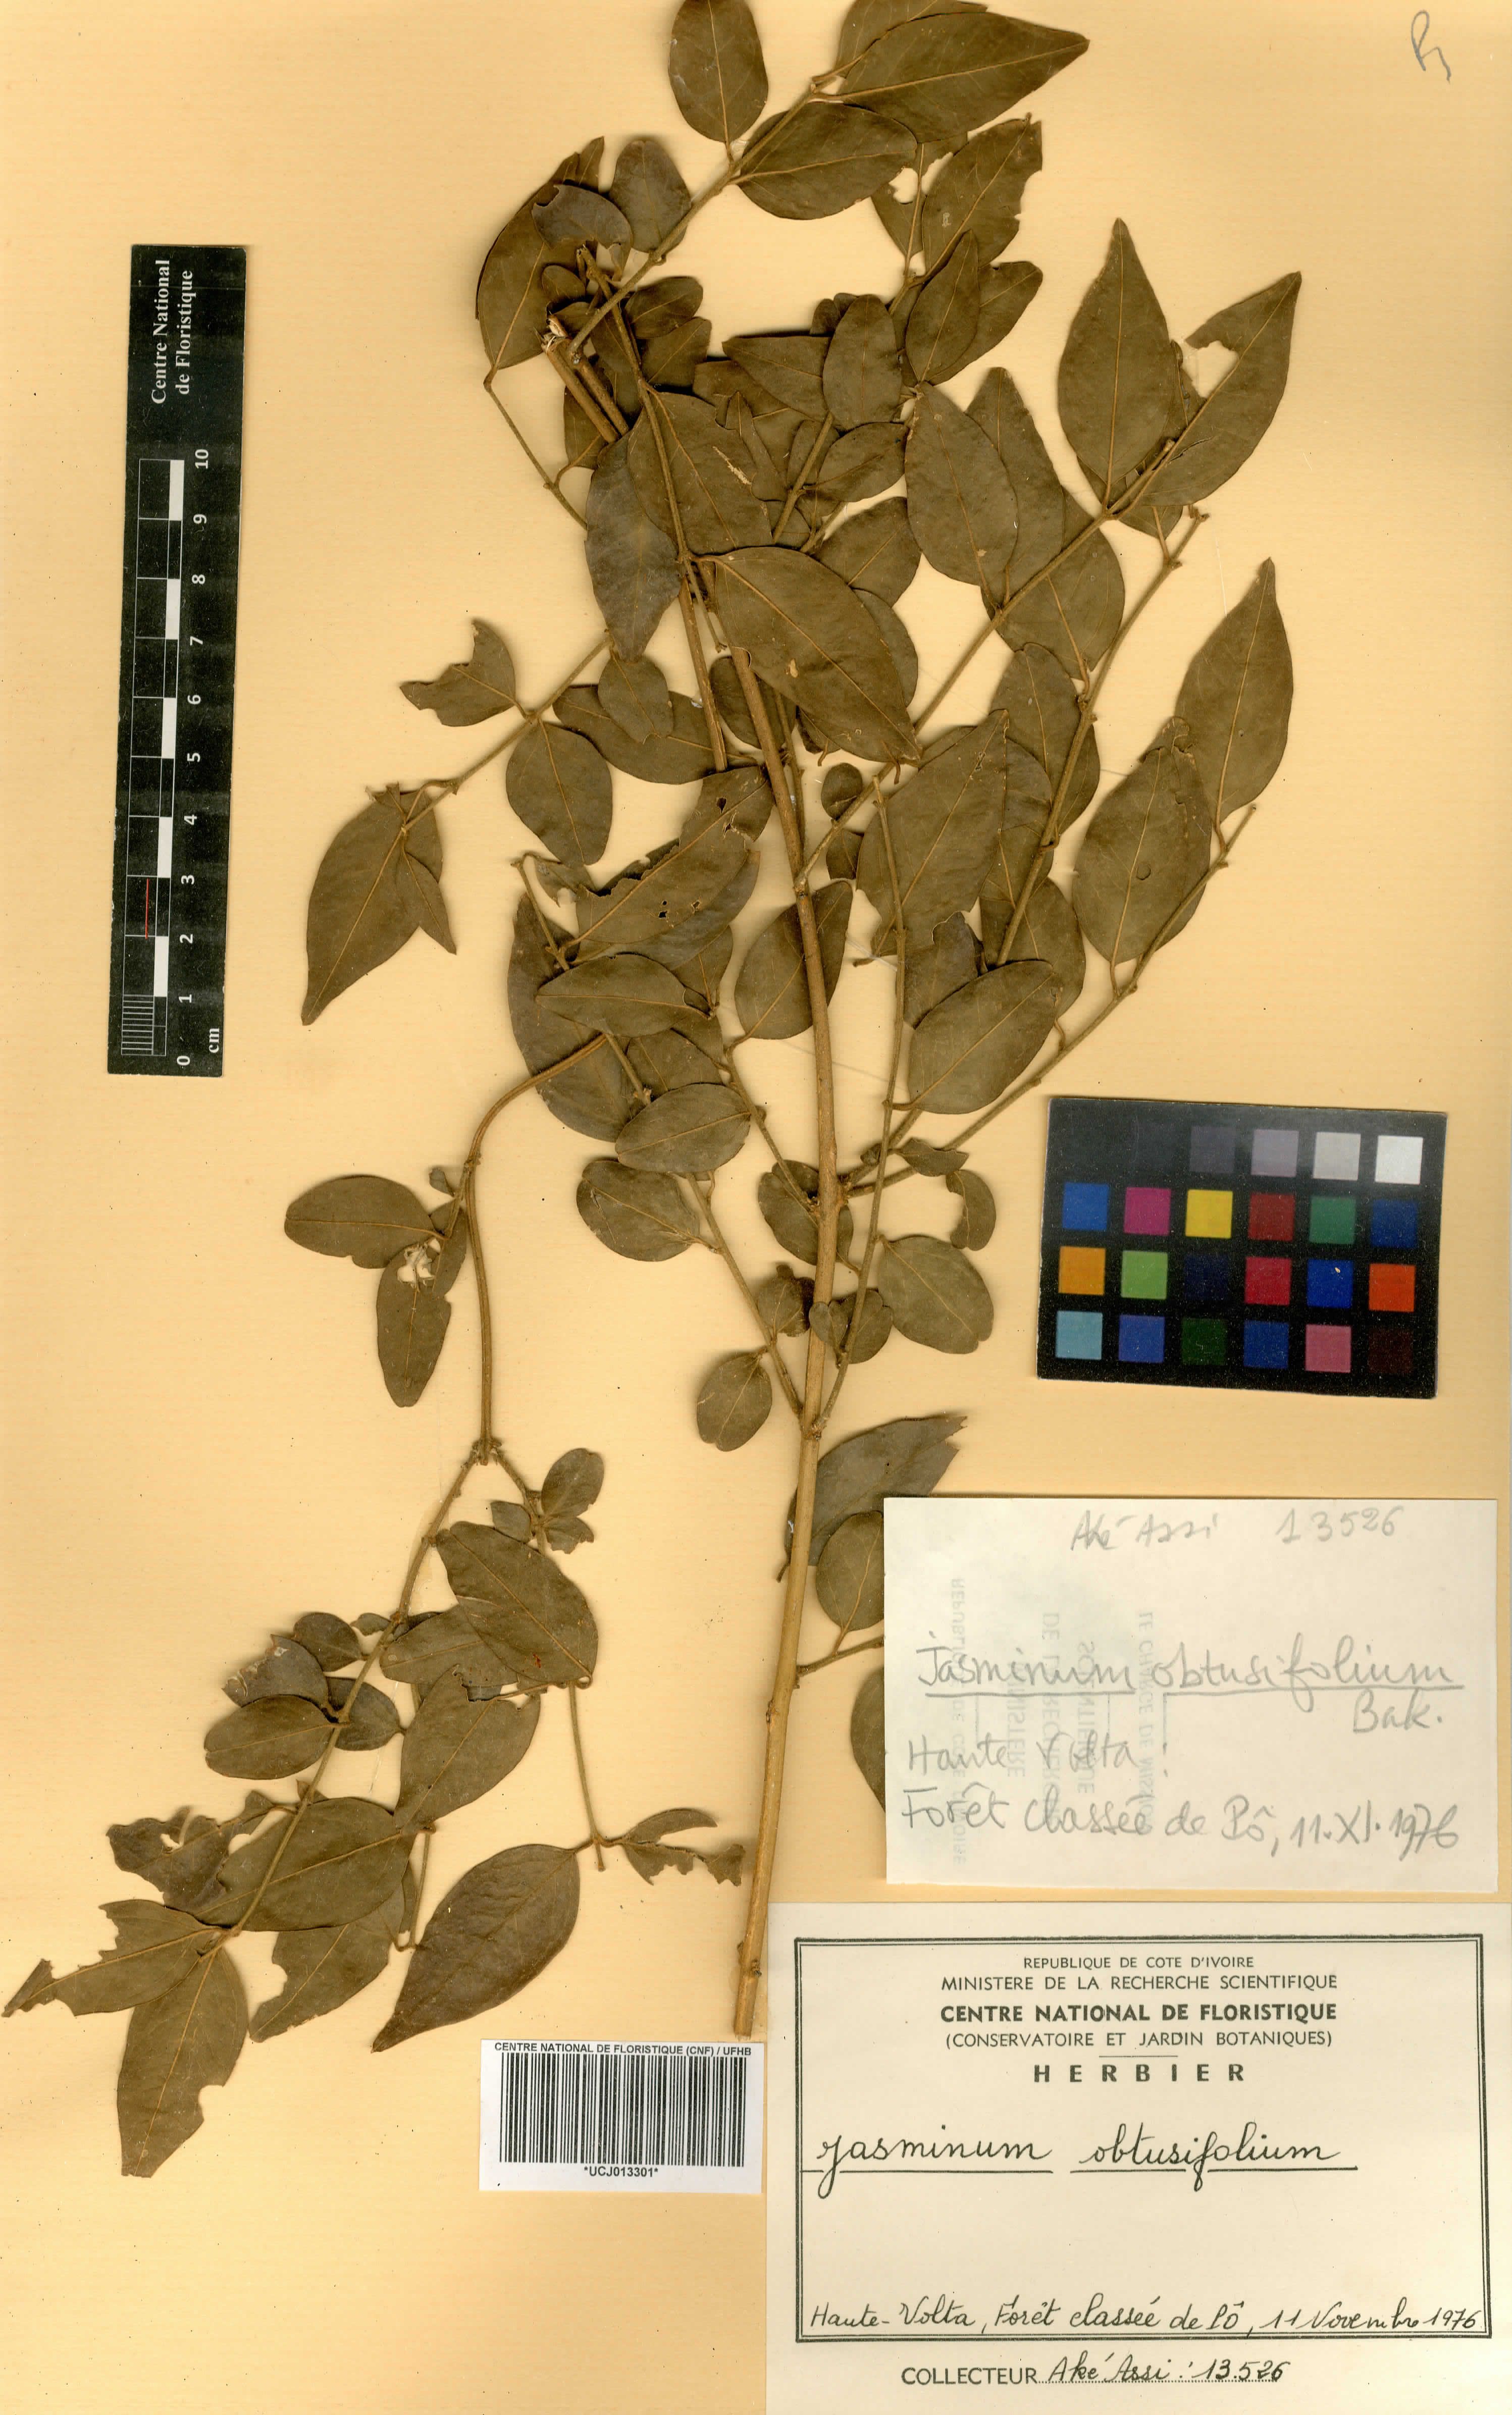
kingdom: Plantae
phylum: Tracheophyta
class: Magnoliopsida
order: Lamiales
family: Oleaceae
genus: Jasminum
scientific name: Jasminum obtusifolium
